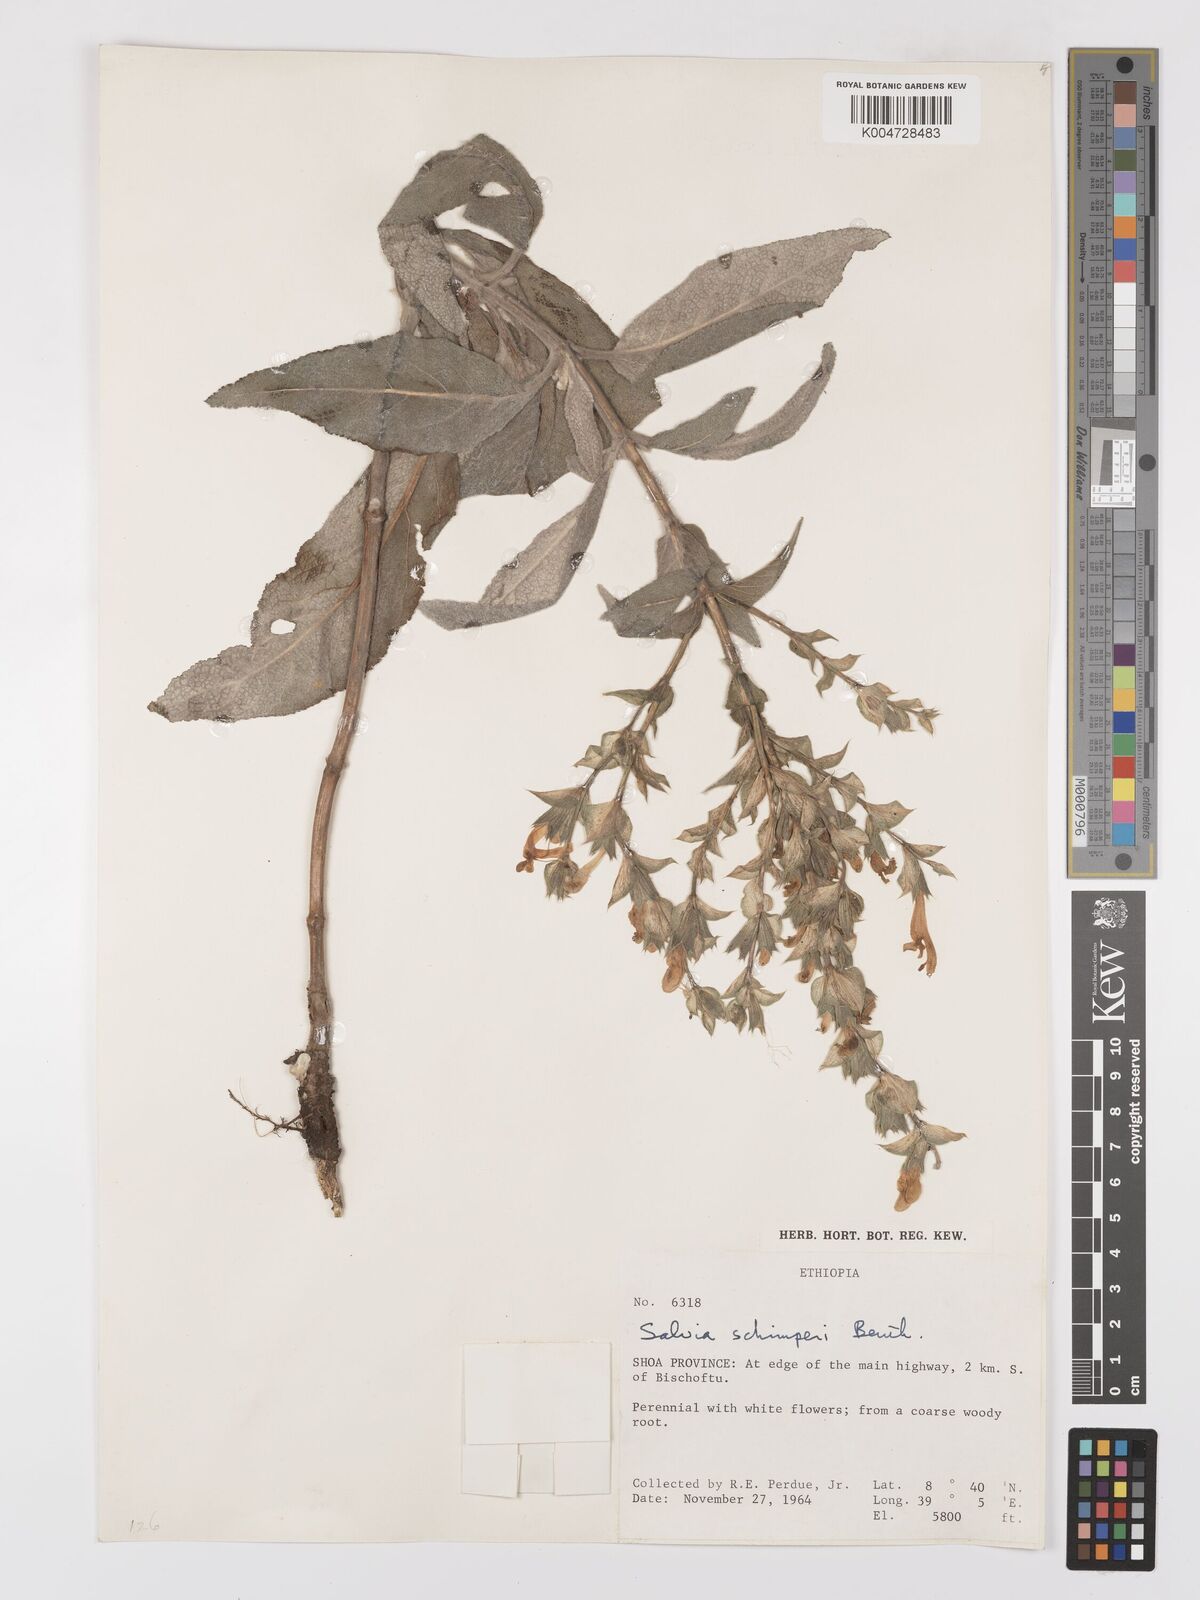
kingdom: Plantae
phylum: Tracheophyta
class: Magnoliopsida
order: Lamiales
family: Lamiaceae
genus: Salvia
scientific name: Salvia schimperi
